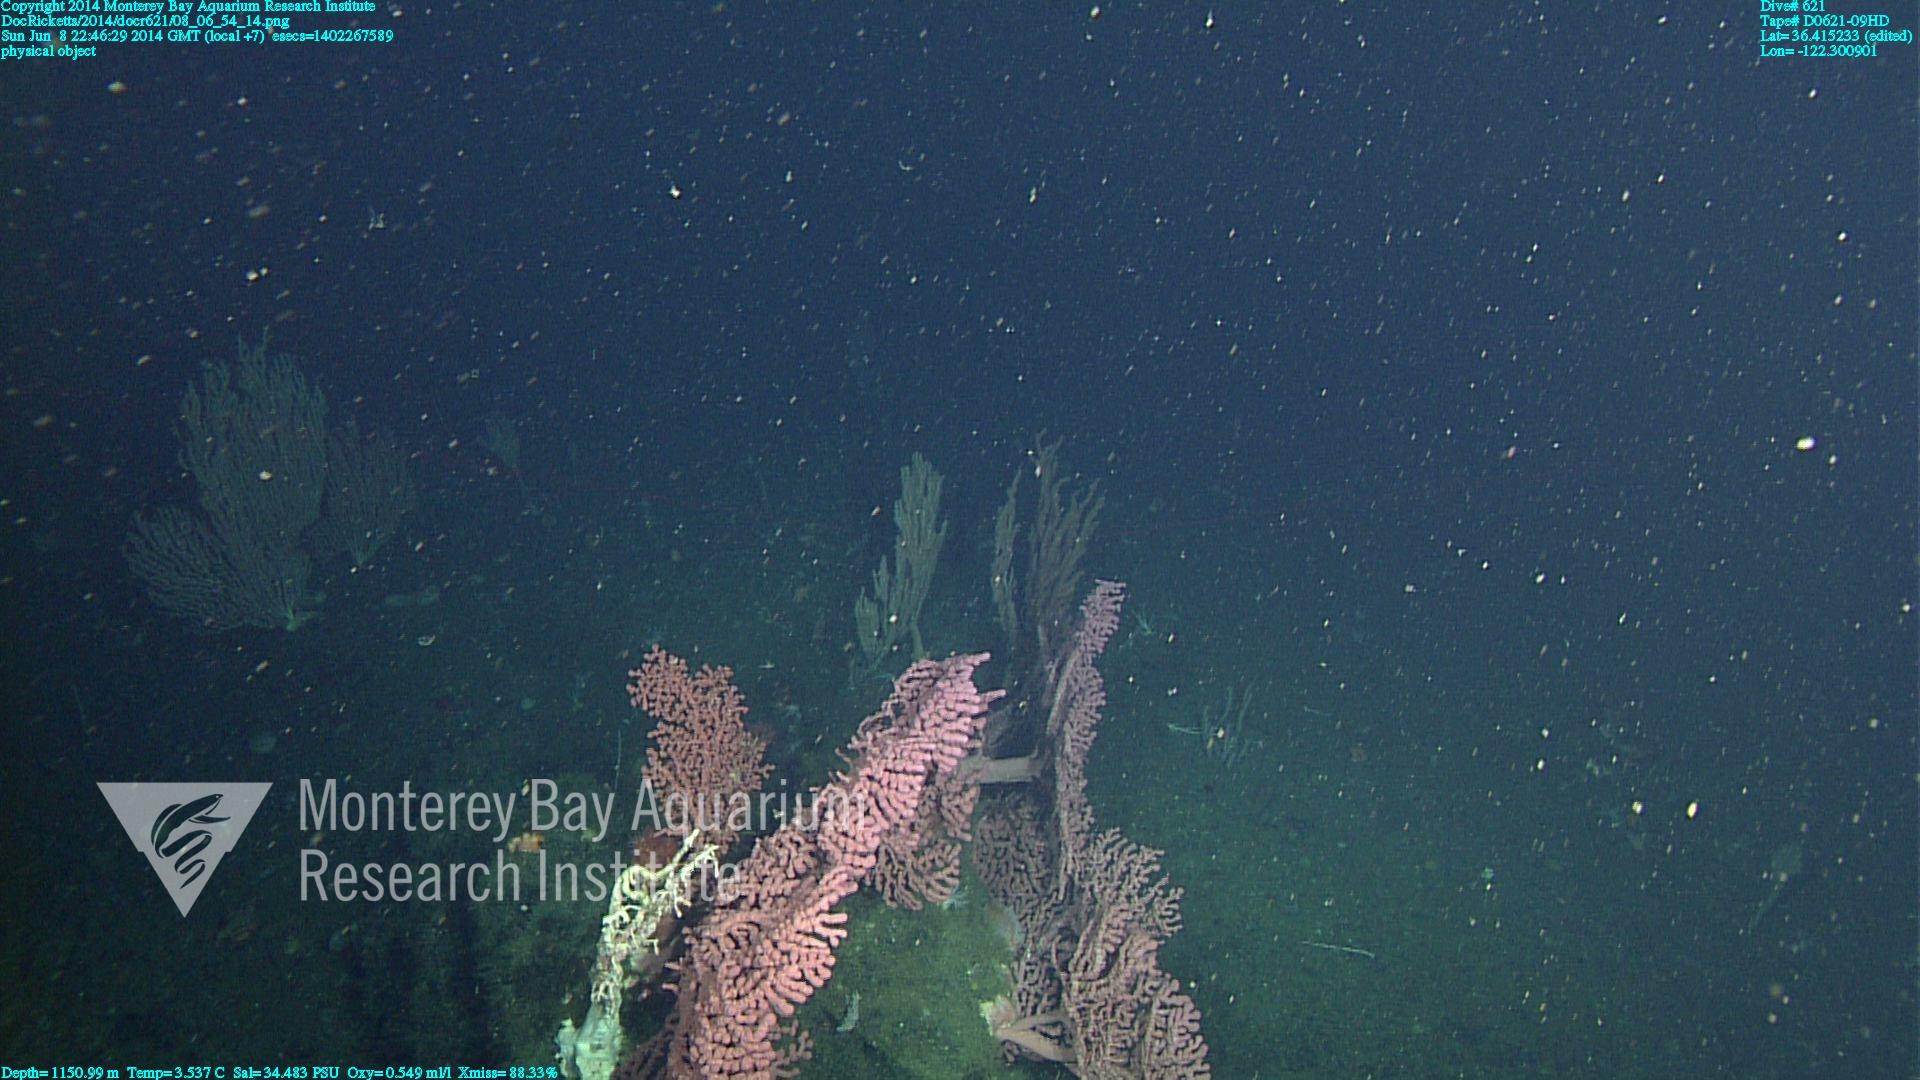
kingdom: Animalia
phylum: Cnidaria
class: Anthozoa
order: Scleralcyonacea
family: Coralliidae
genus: Paragorgia
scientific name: Paragorgia arborea
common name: Bubble gum coral
